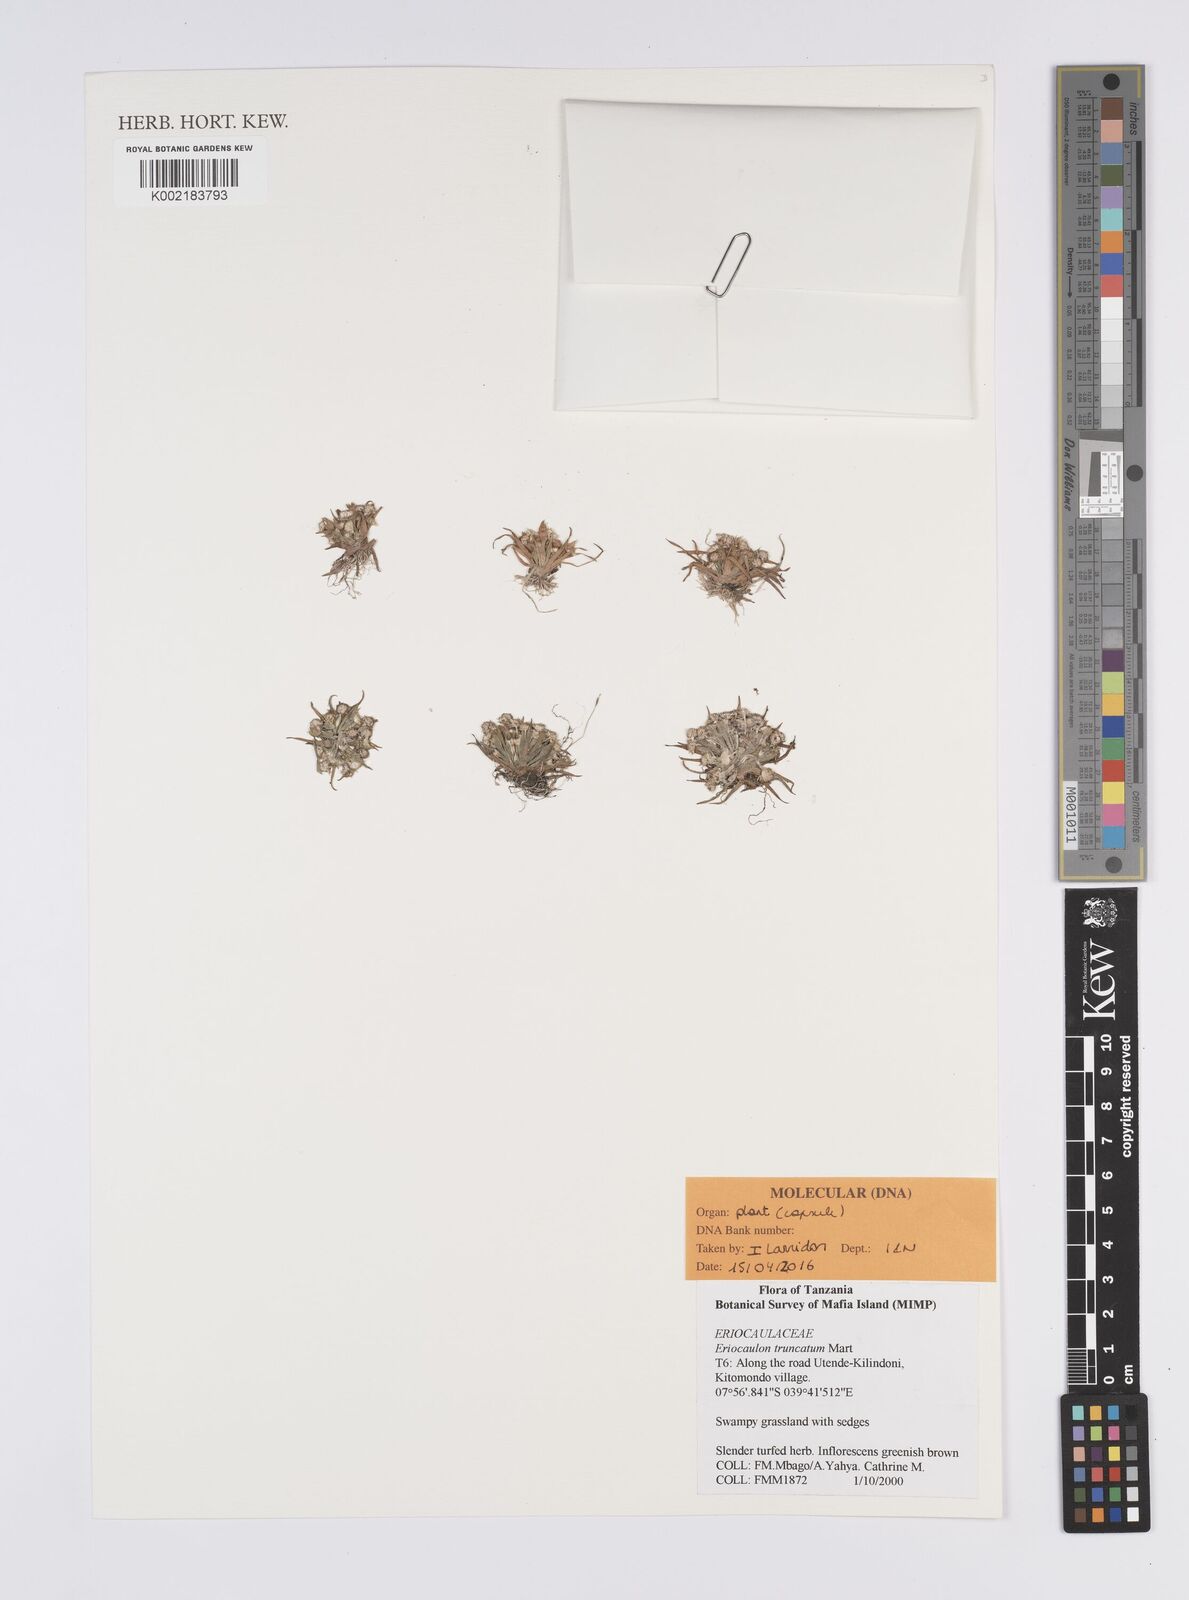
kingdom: Plantae
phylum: Tracheophyta
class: Liliopsida
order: Poales
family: Eriocaulaceae
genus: Eriocaulon
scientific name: Eriocaulon truncatum
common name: Short pipe-wort
